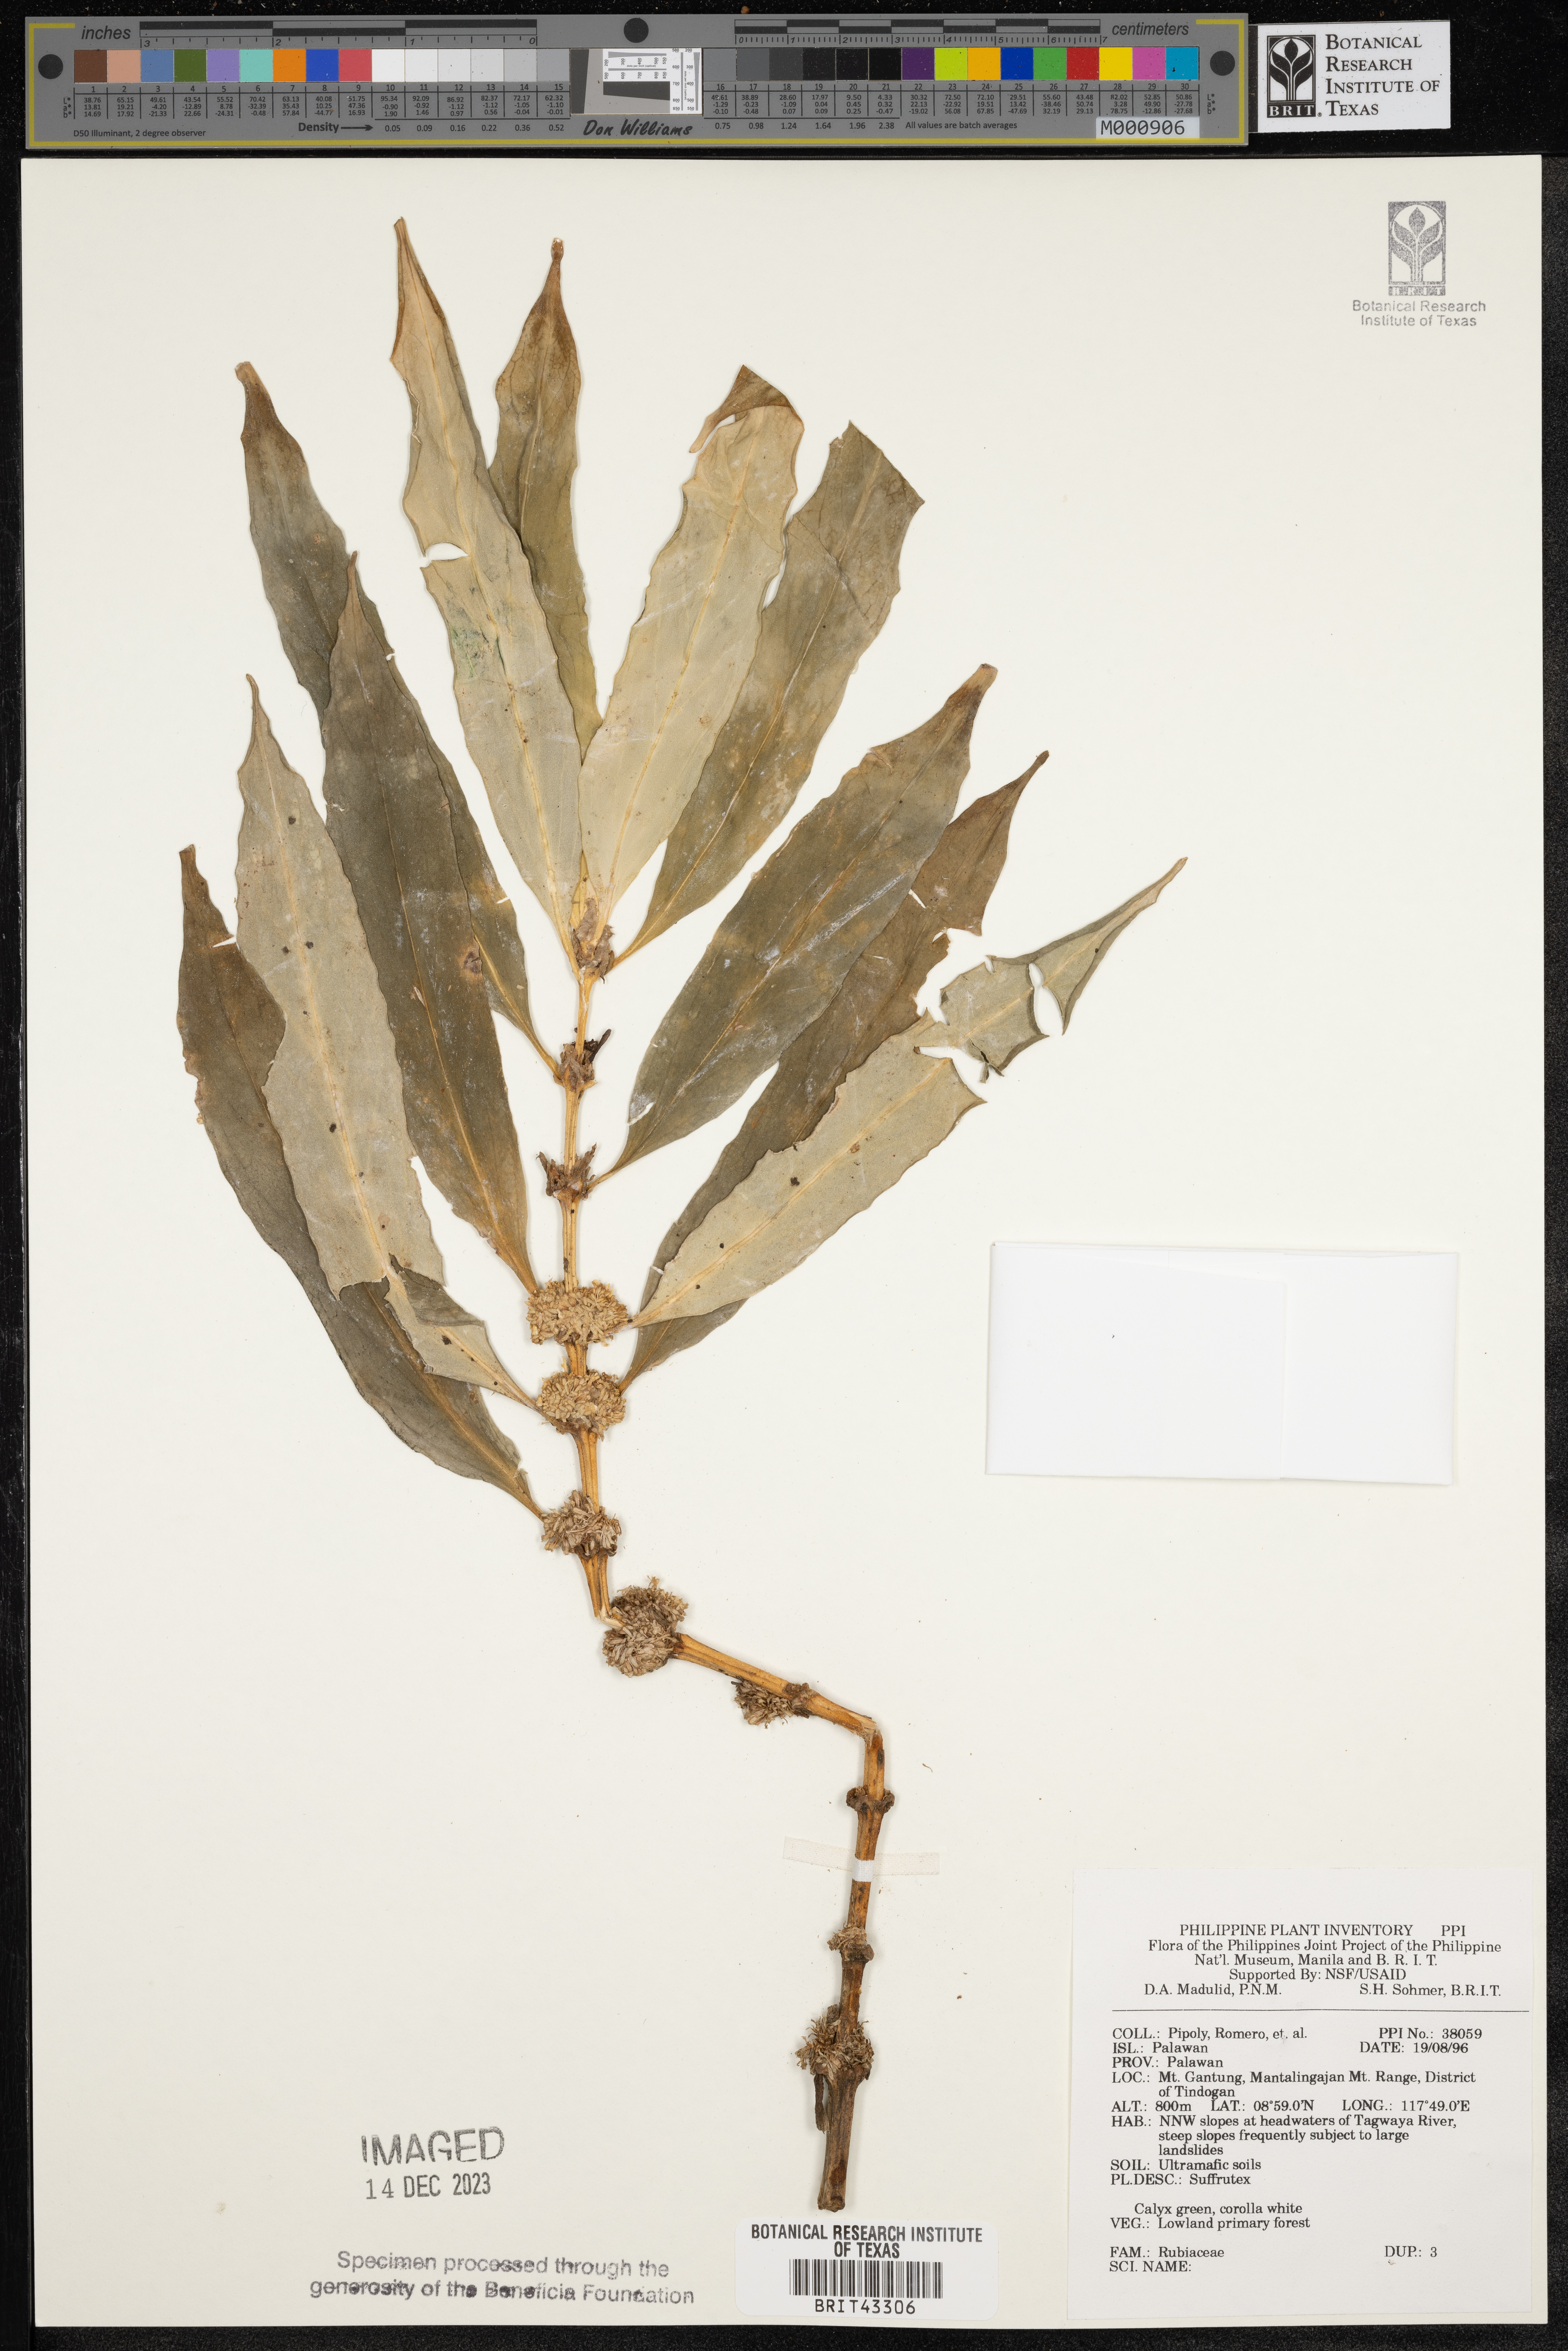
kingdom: Plantae
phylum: Tracheophyta
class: Magnoliopsida
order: Malpighiales
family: Euphorbiaceae
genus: Acalypha
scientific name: Acalypha schiedeana
